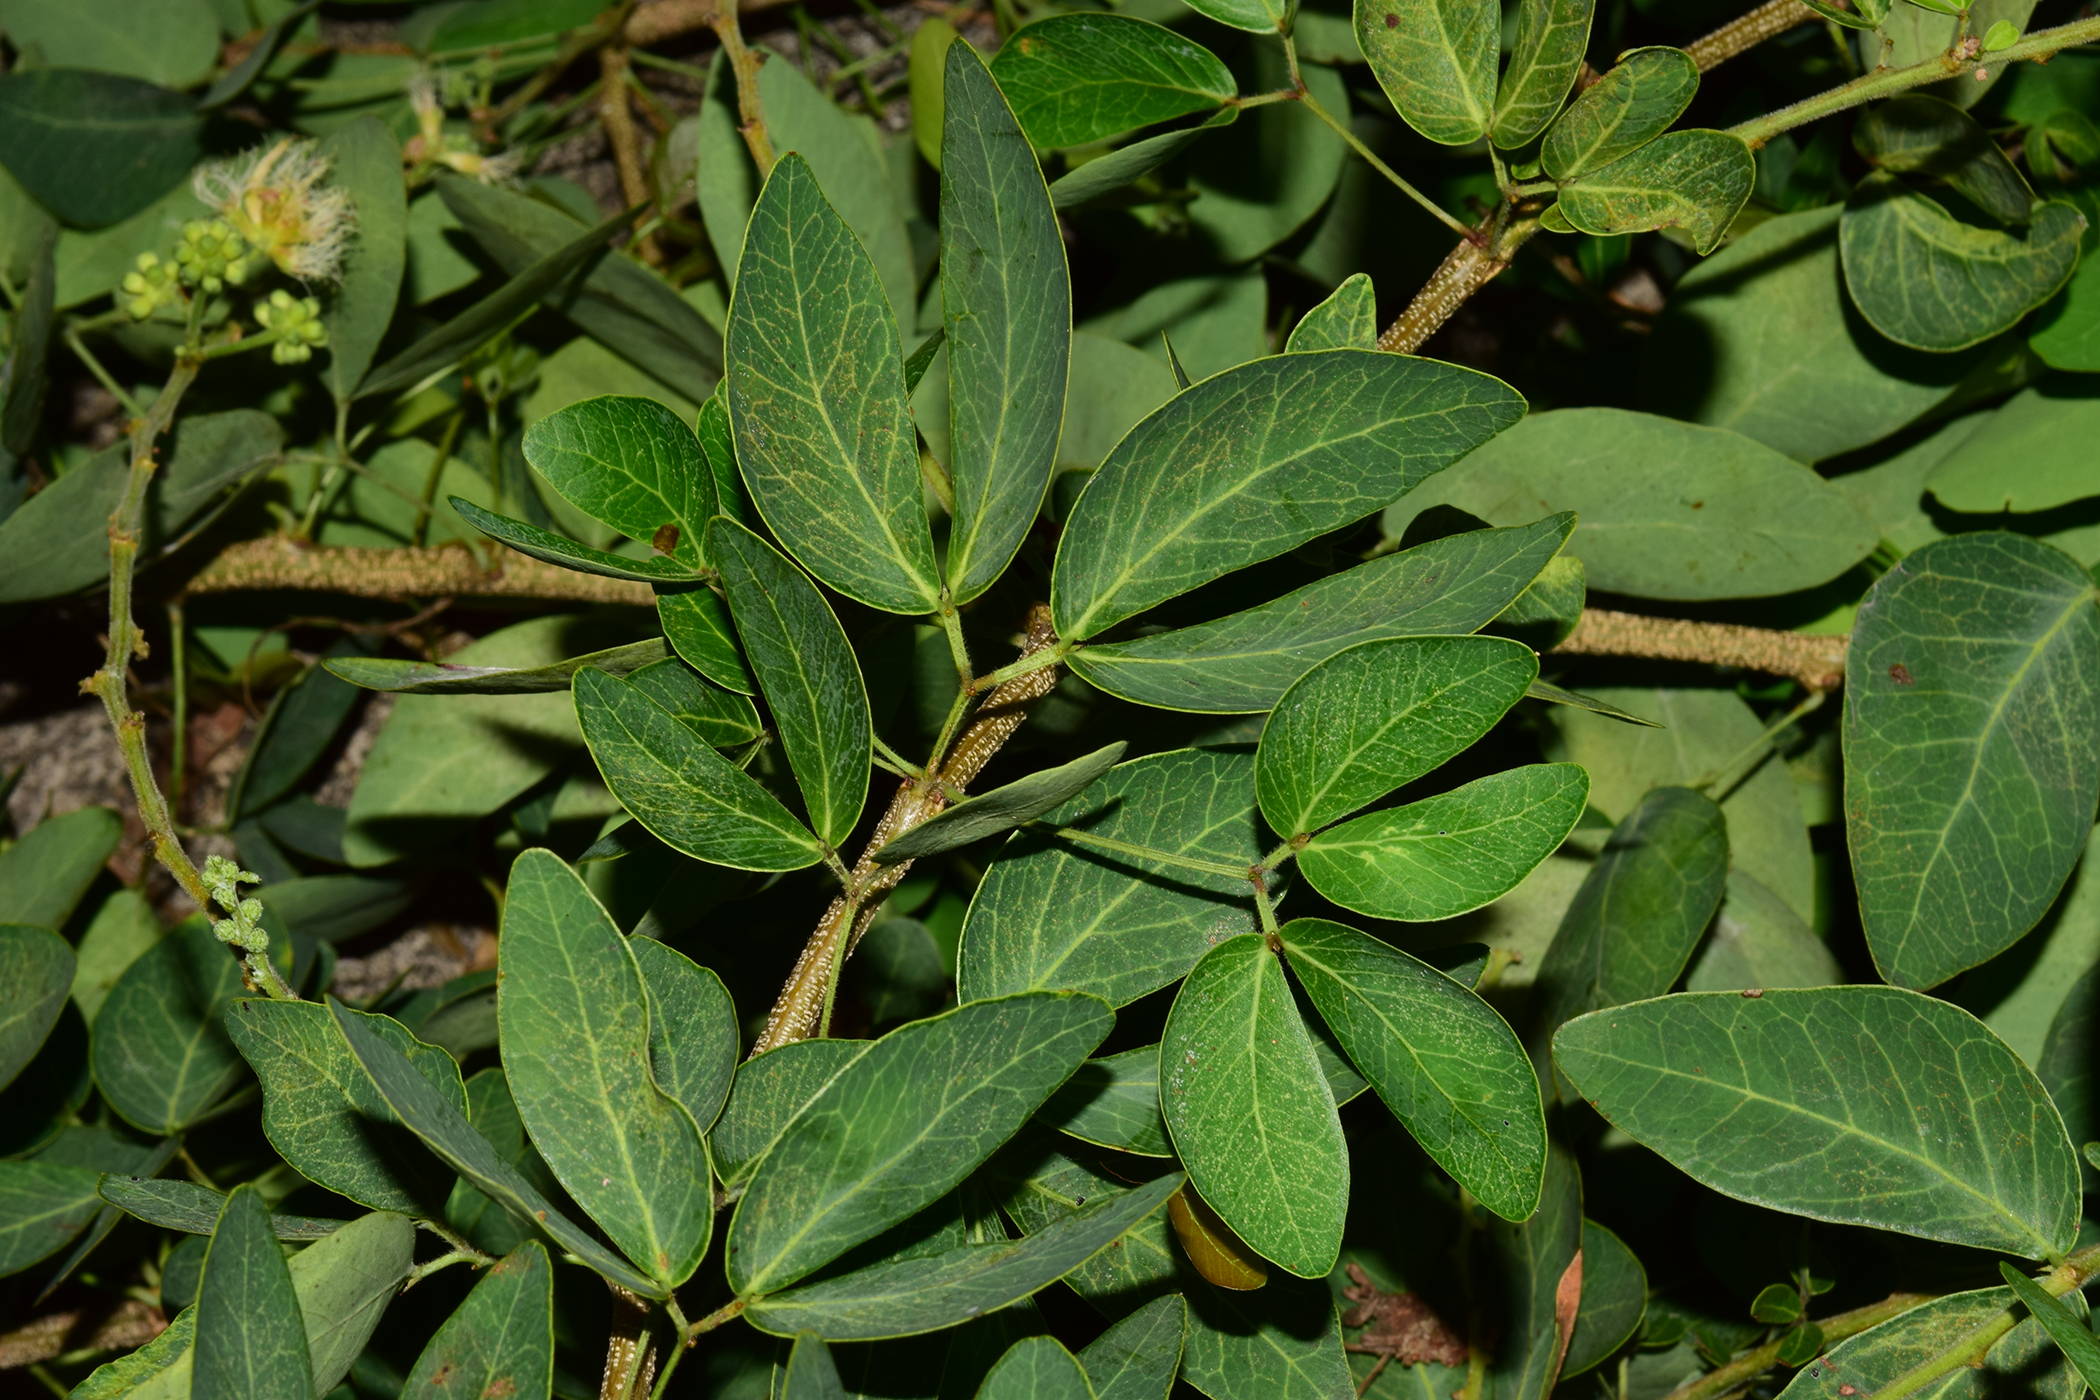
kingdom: Plantae
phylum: Tracheophyta
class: Magnoliopsida
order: Fabales
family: Fabaceae
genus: Pithecellobium
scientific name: Pithecellobium dulce
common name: Monkeypod
